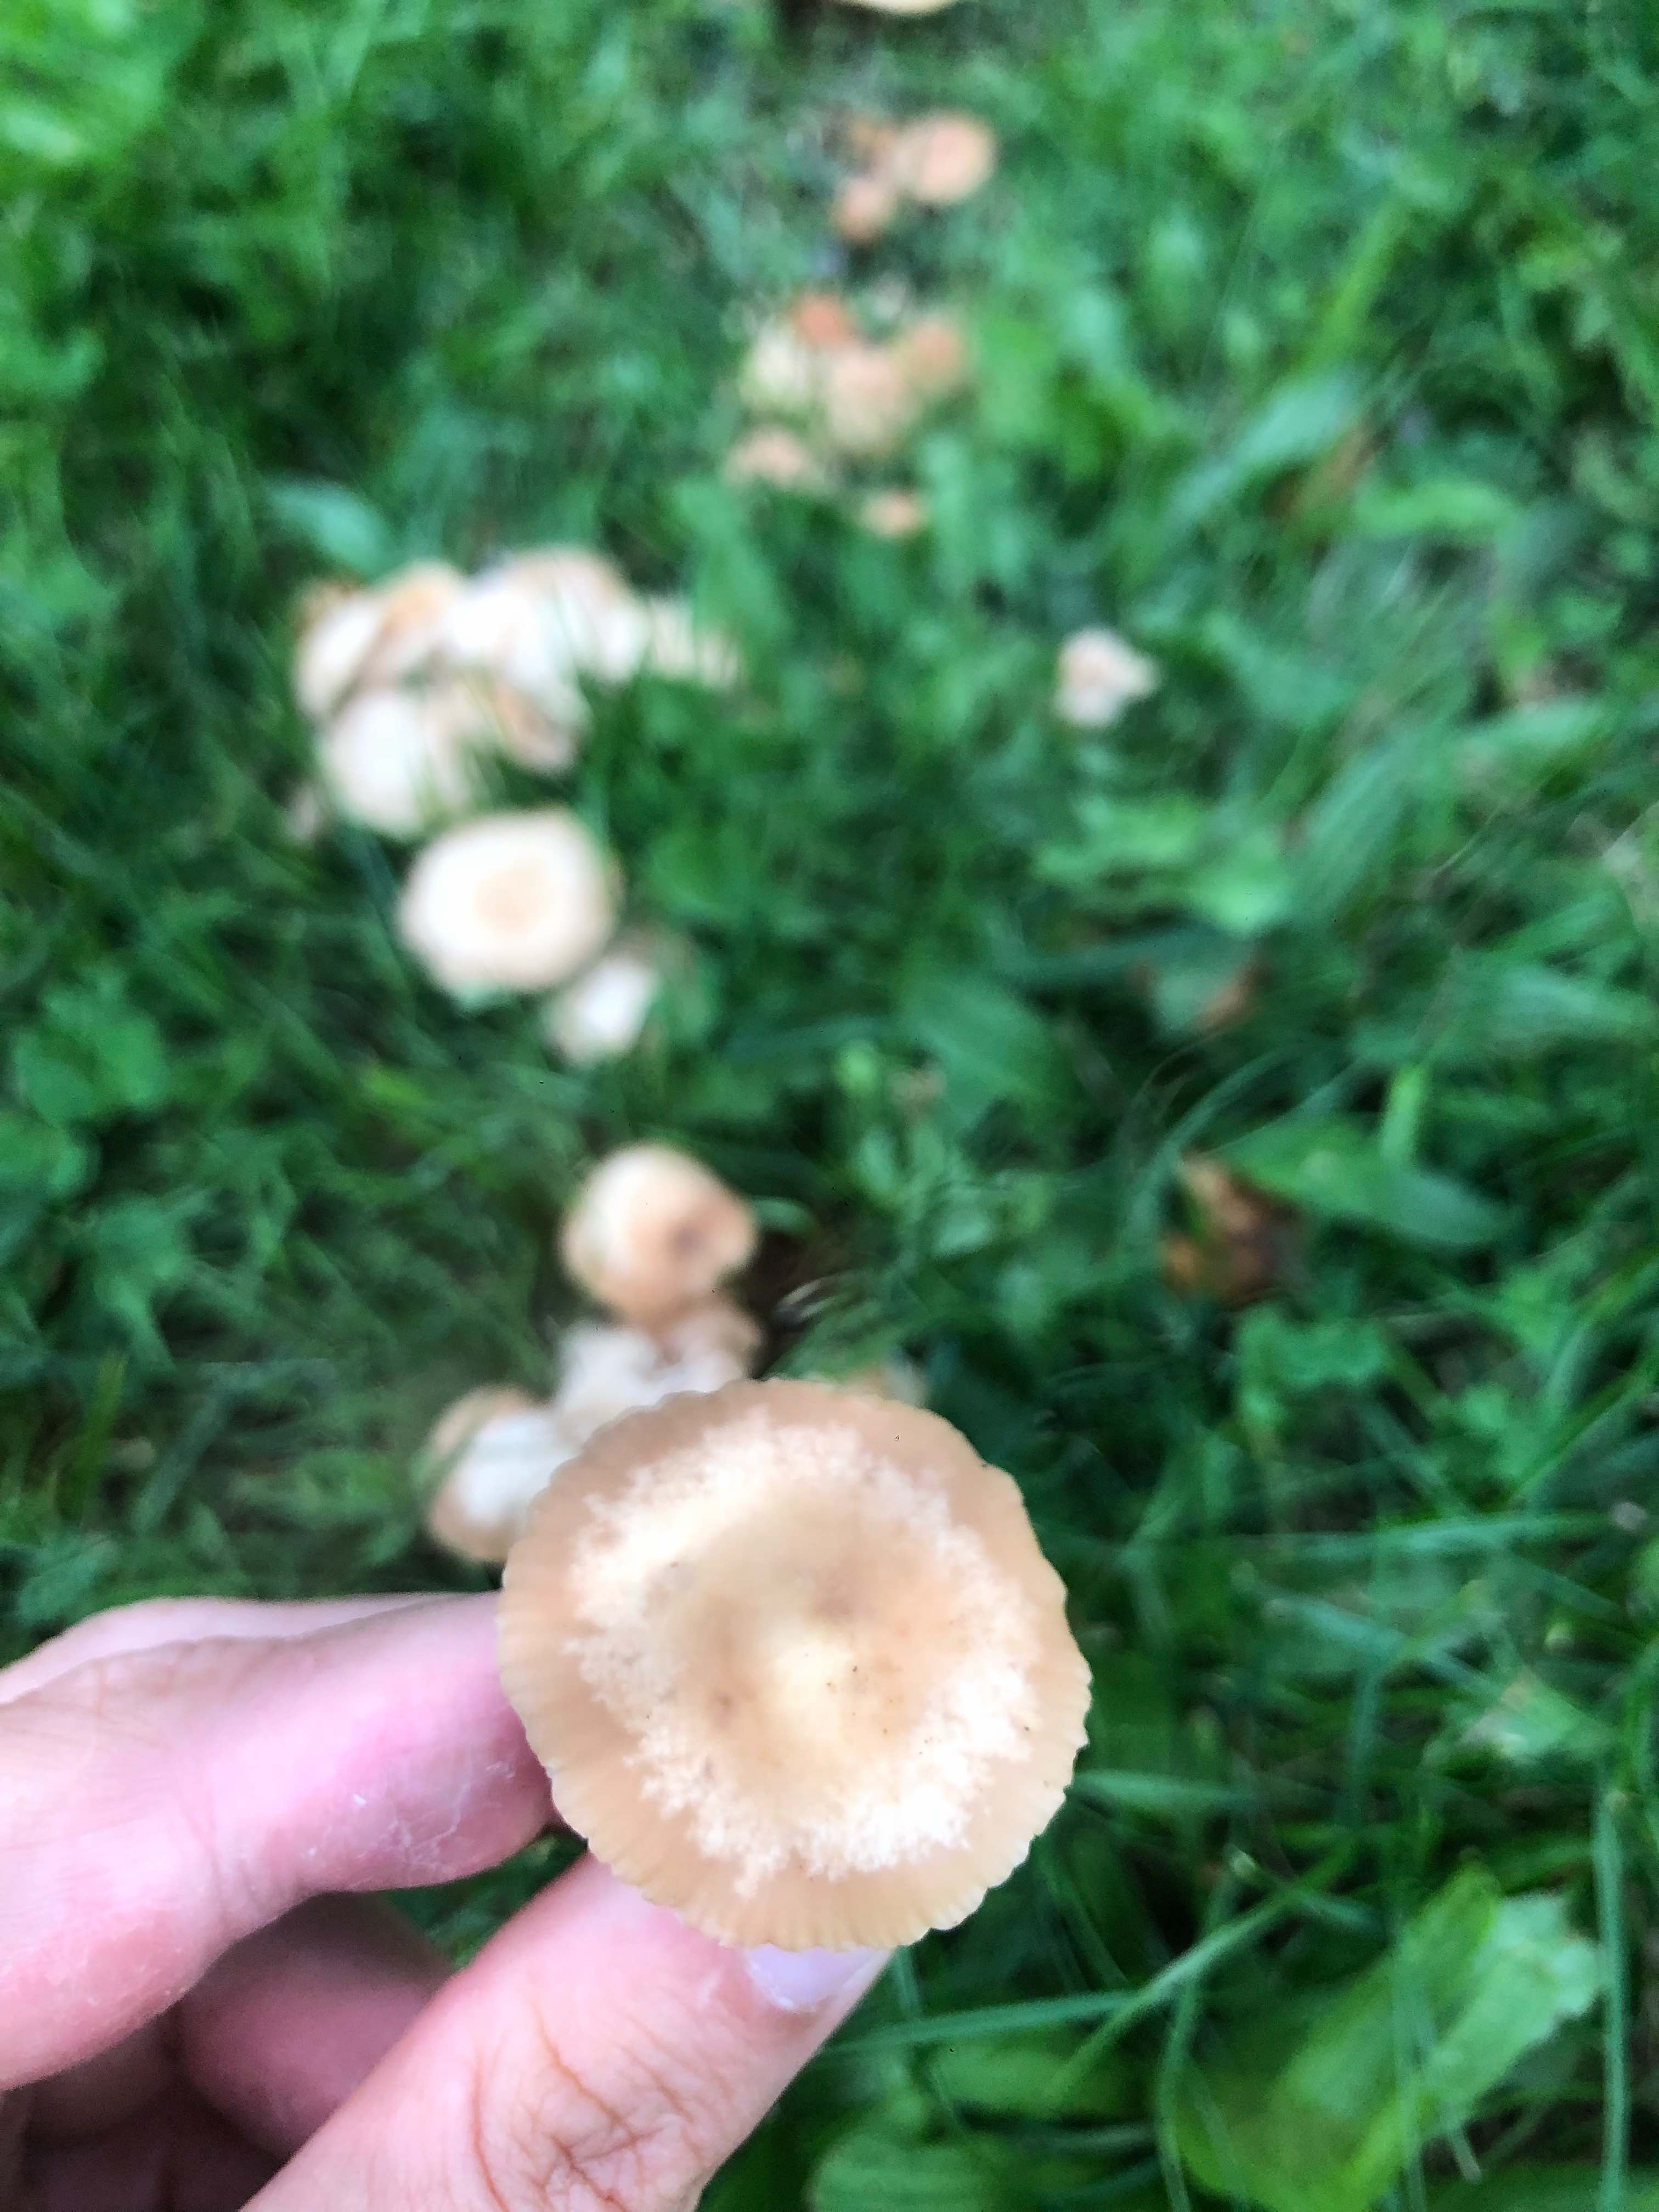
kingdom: Fungi
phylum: Basidiomycota
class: Agaricomycetes
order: Agaricales
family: Marasmiaceae
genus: Marasmius
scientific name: Marasmius oreades
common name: elledans-bruskhat
